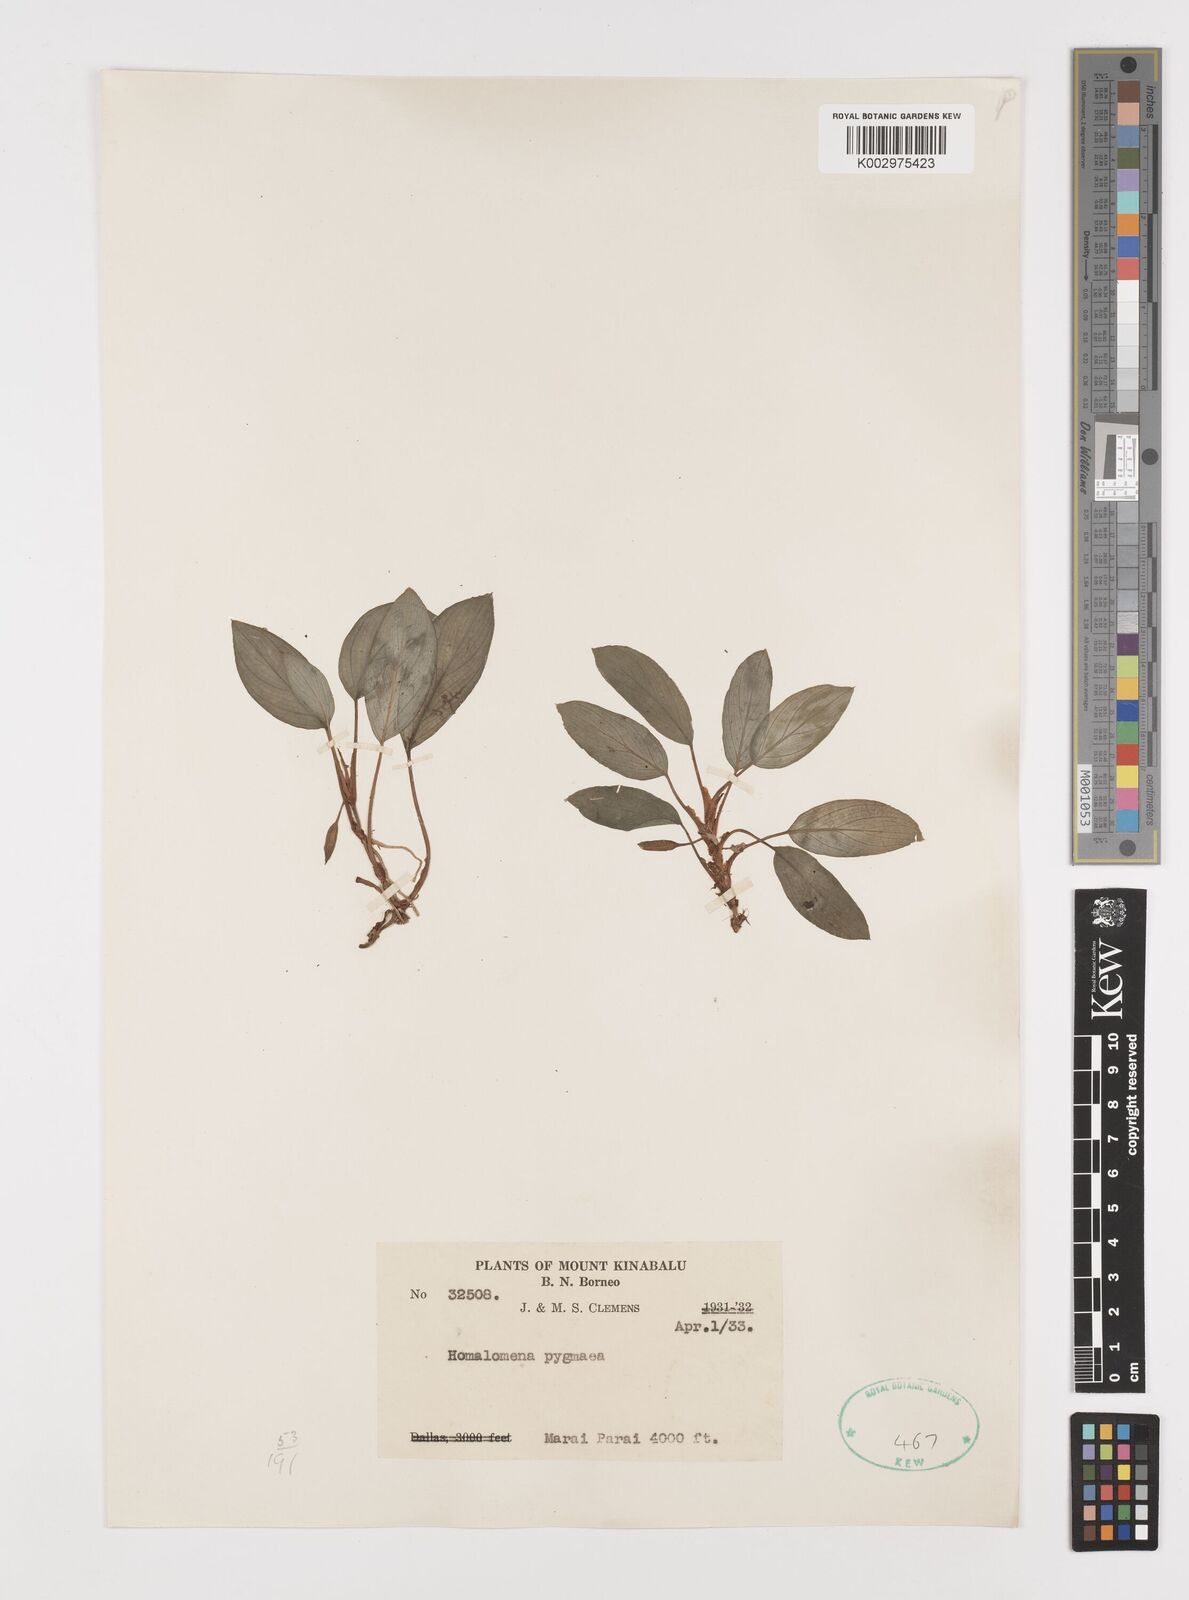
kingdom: Plantae
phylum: Tracheophyta
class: Liliopsida
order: Alismatales
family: Araceae
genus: Homalomena
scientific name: Homalomena humilis
